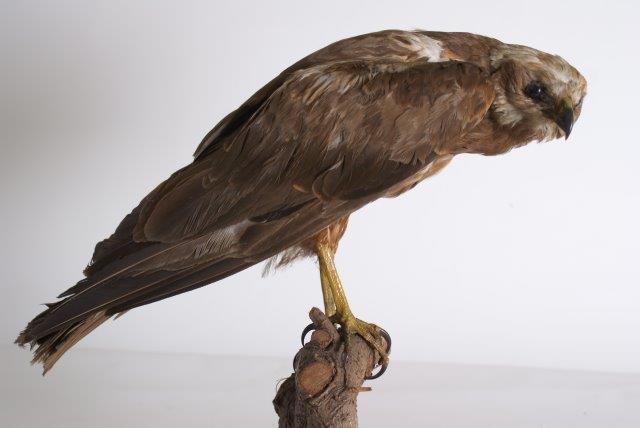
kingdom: Animalia
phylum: Chordata
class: Aves
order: Accipitriformes
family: Accipitridae
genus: Circus
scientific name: Circus aeruginosus
